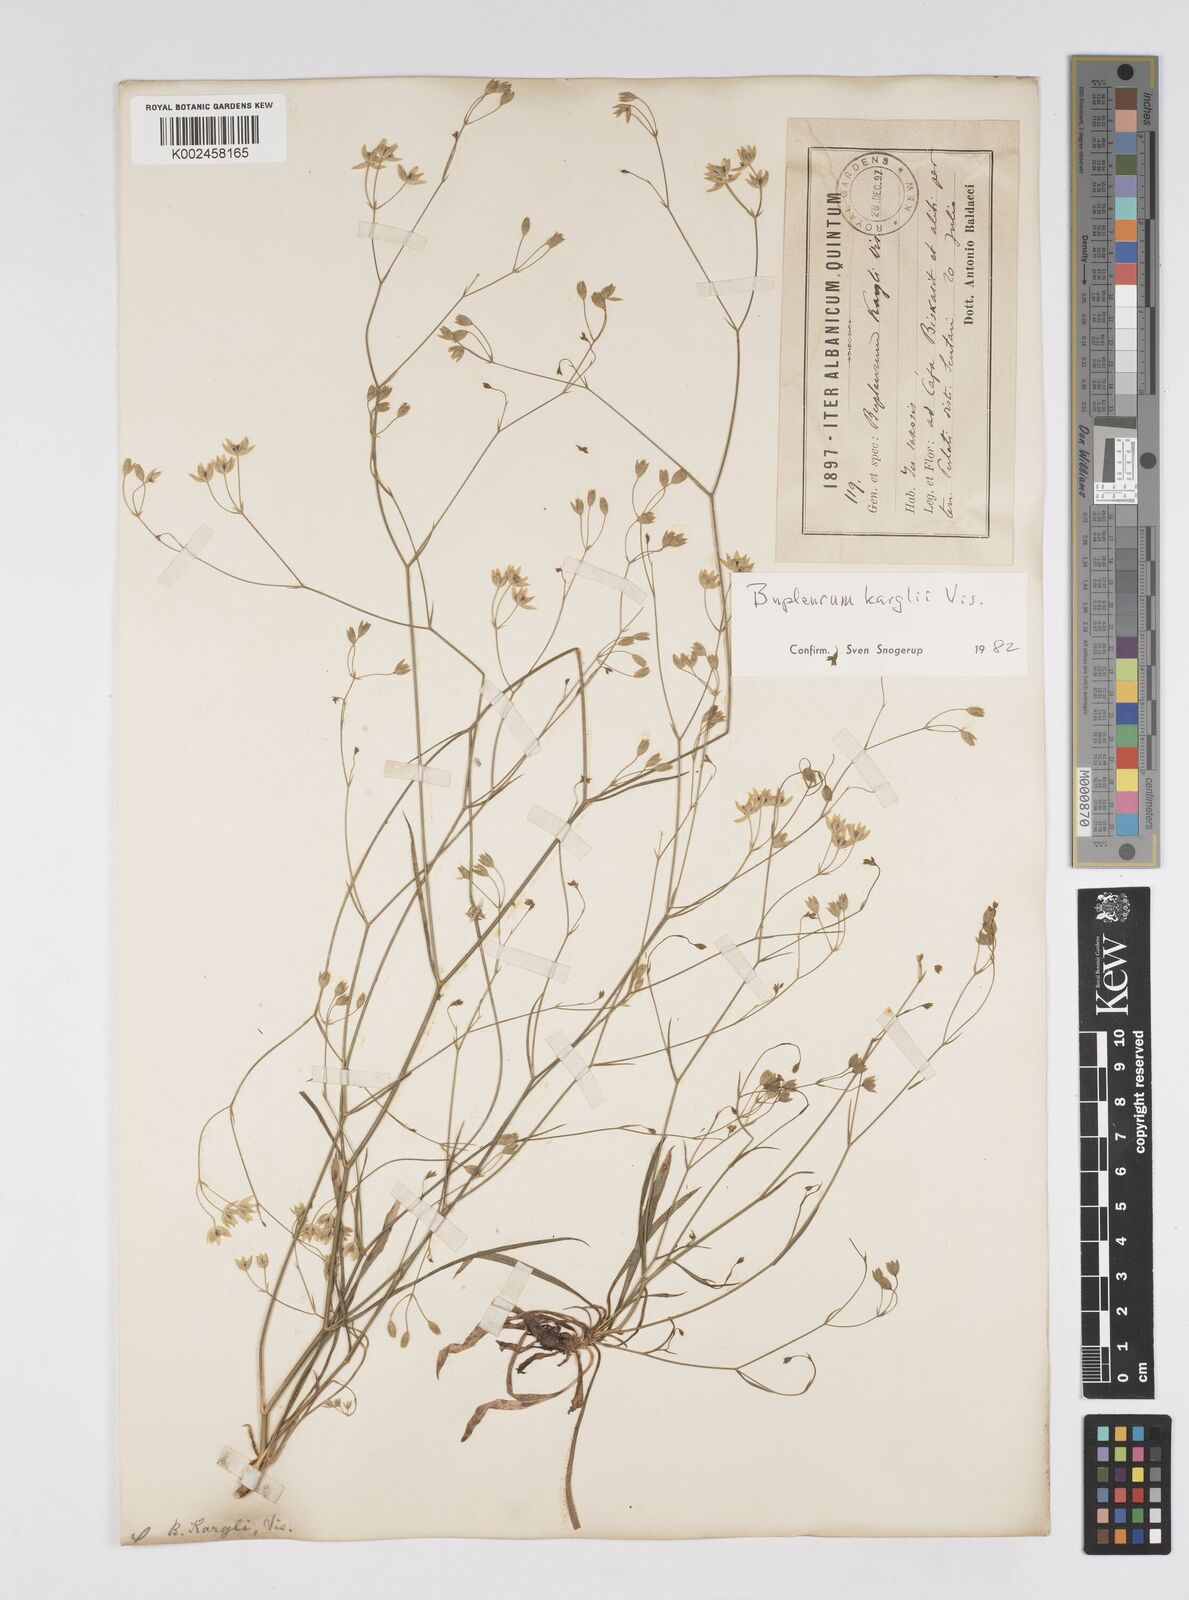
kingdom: Plantae
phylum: Tracheophyta
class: Magnoliopsida
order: Apiales
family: Apiaceae
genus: Bupleurum
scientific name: Bupleurum karglii
